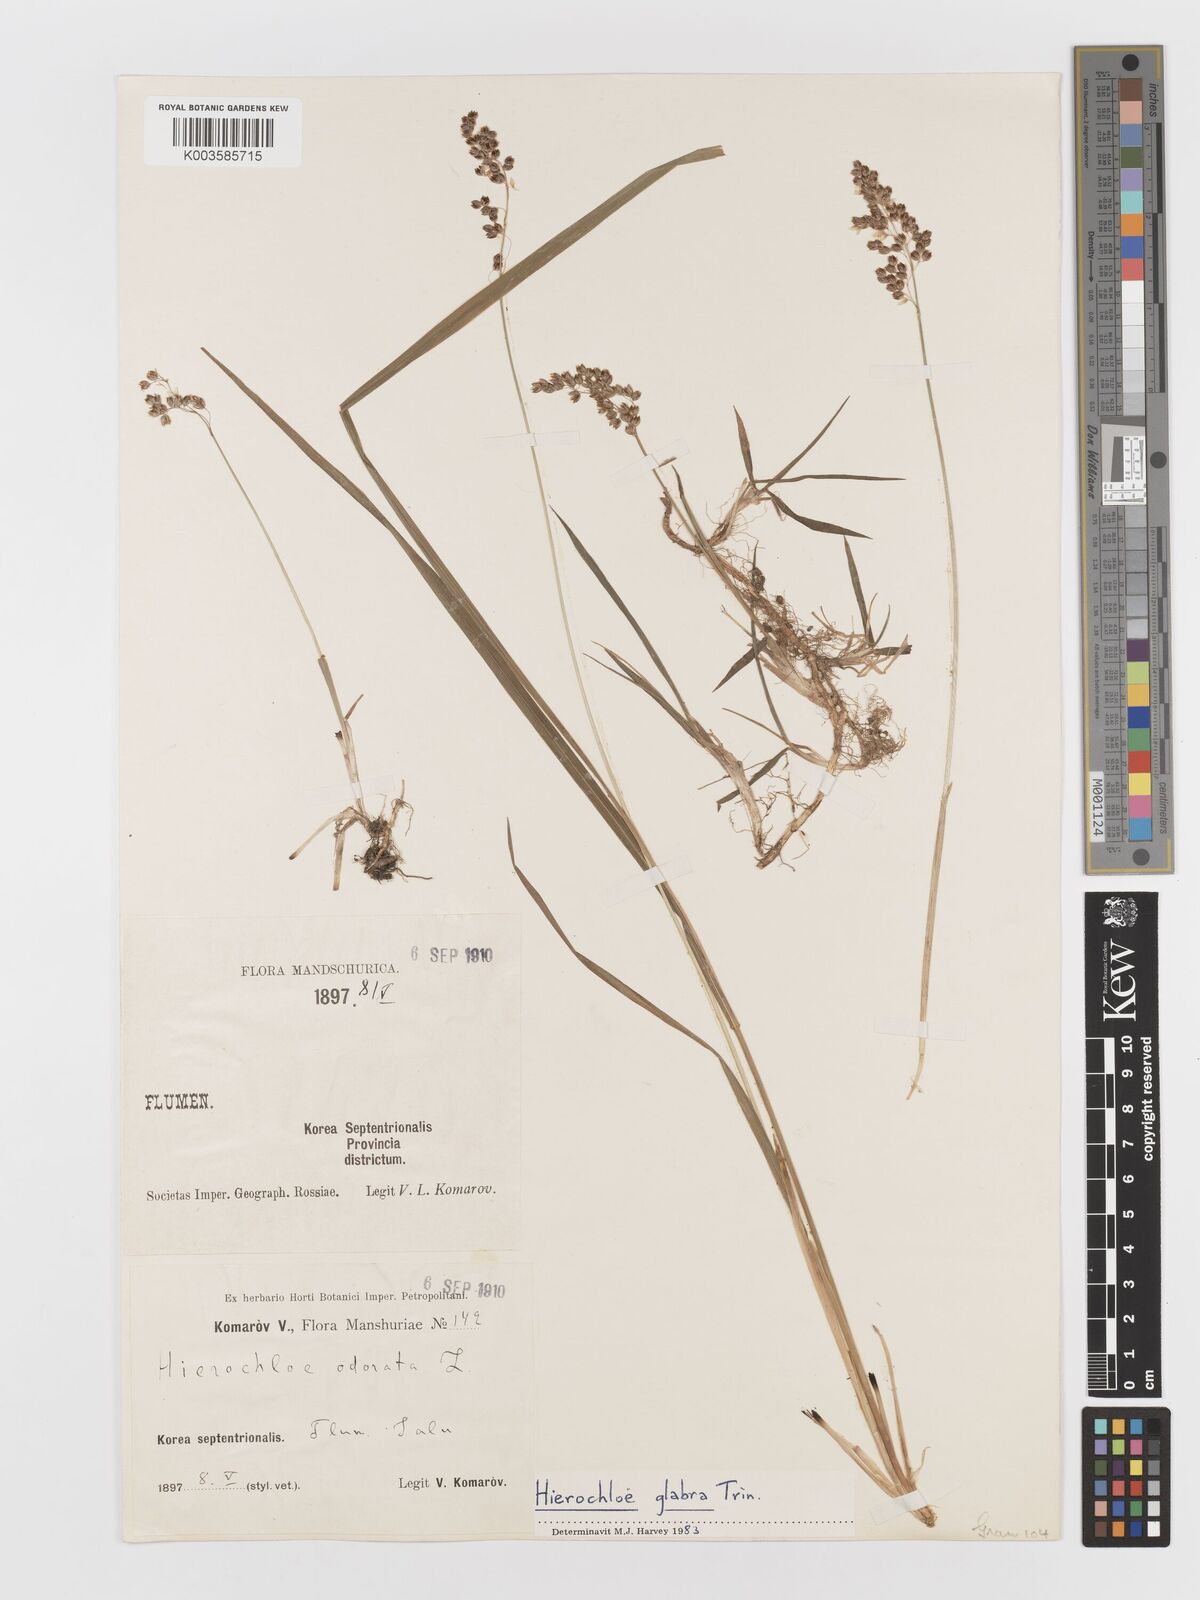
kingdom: Plantae
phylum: Tracheophyta
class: Liliopsida
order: Poales
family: Poaceae
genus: Anthoxanthum
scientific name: Anthoxanthum glabrum
